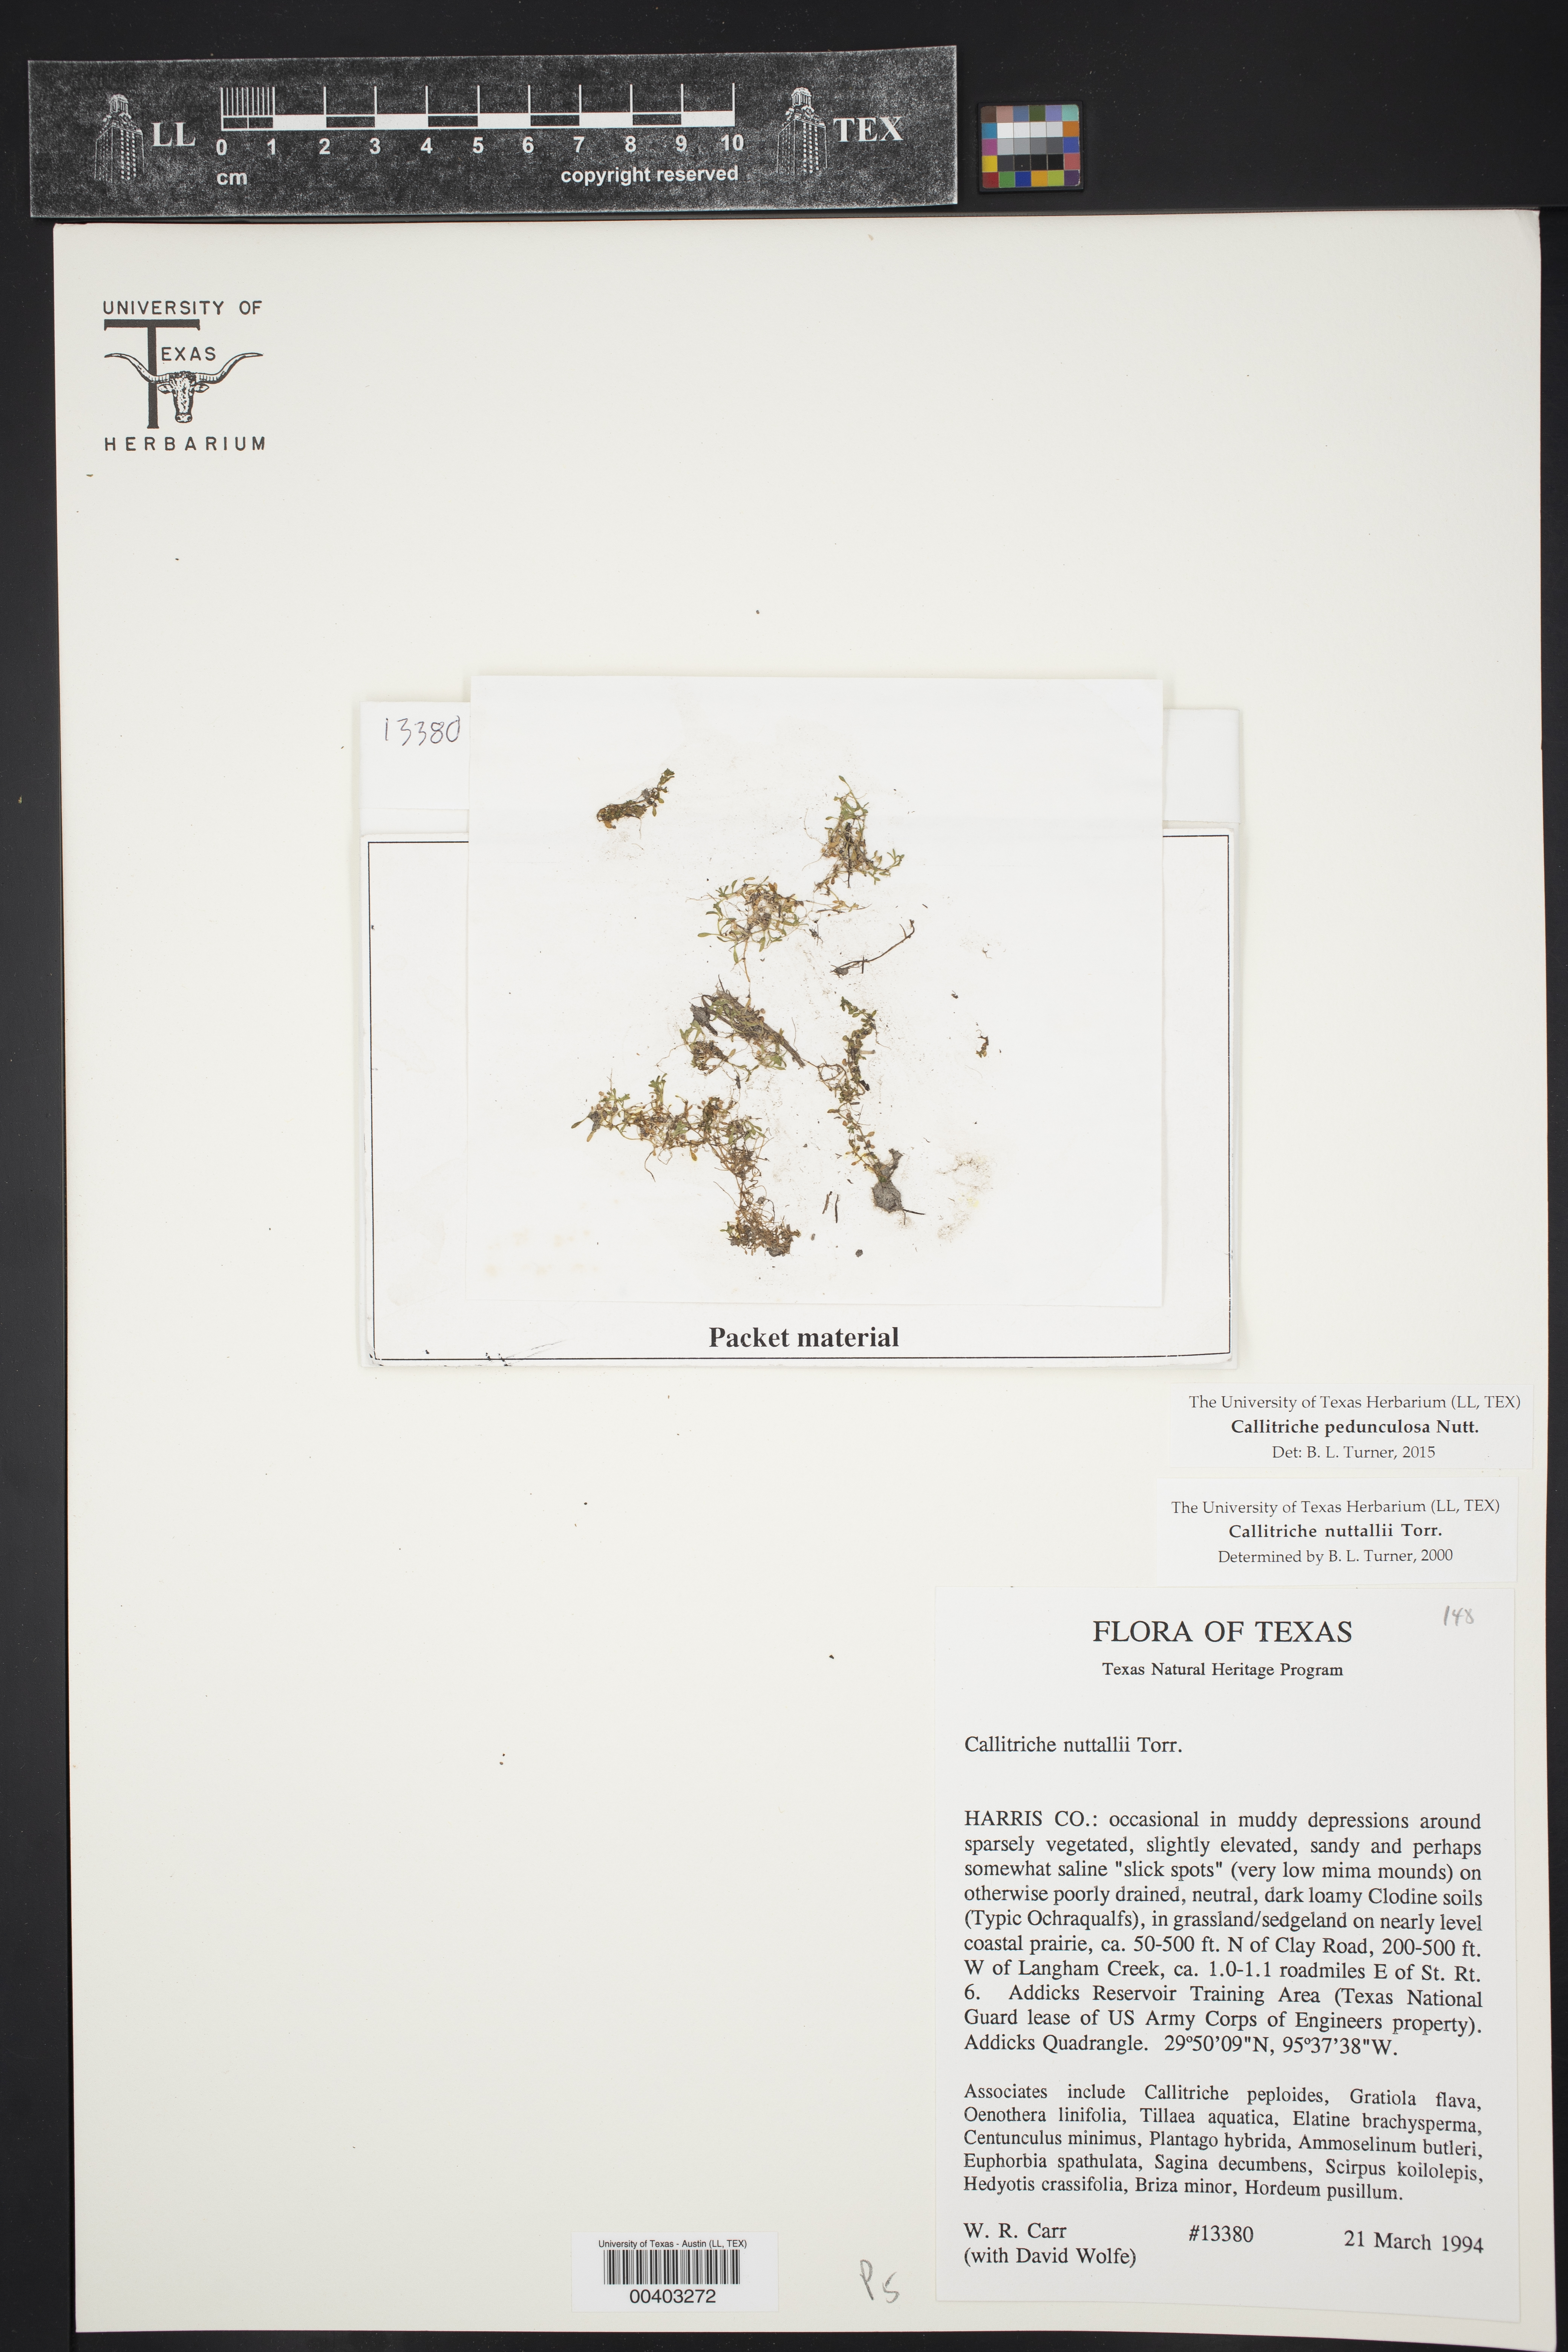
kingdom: Plantae
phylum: Tracheophyta
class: Magnoliopsida
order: Lamiales
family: Plantaginaceae
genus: Callitriche
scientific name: Callitriche pedunculosa
